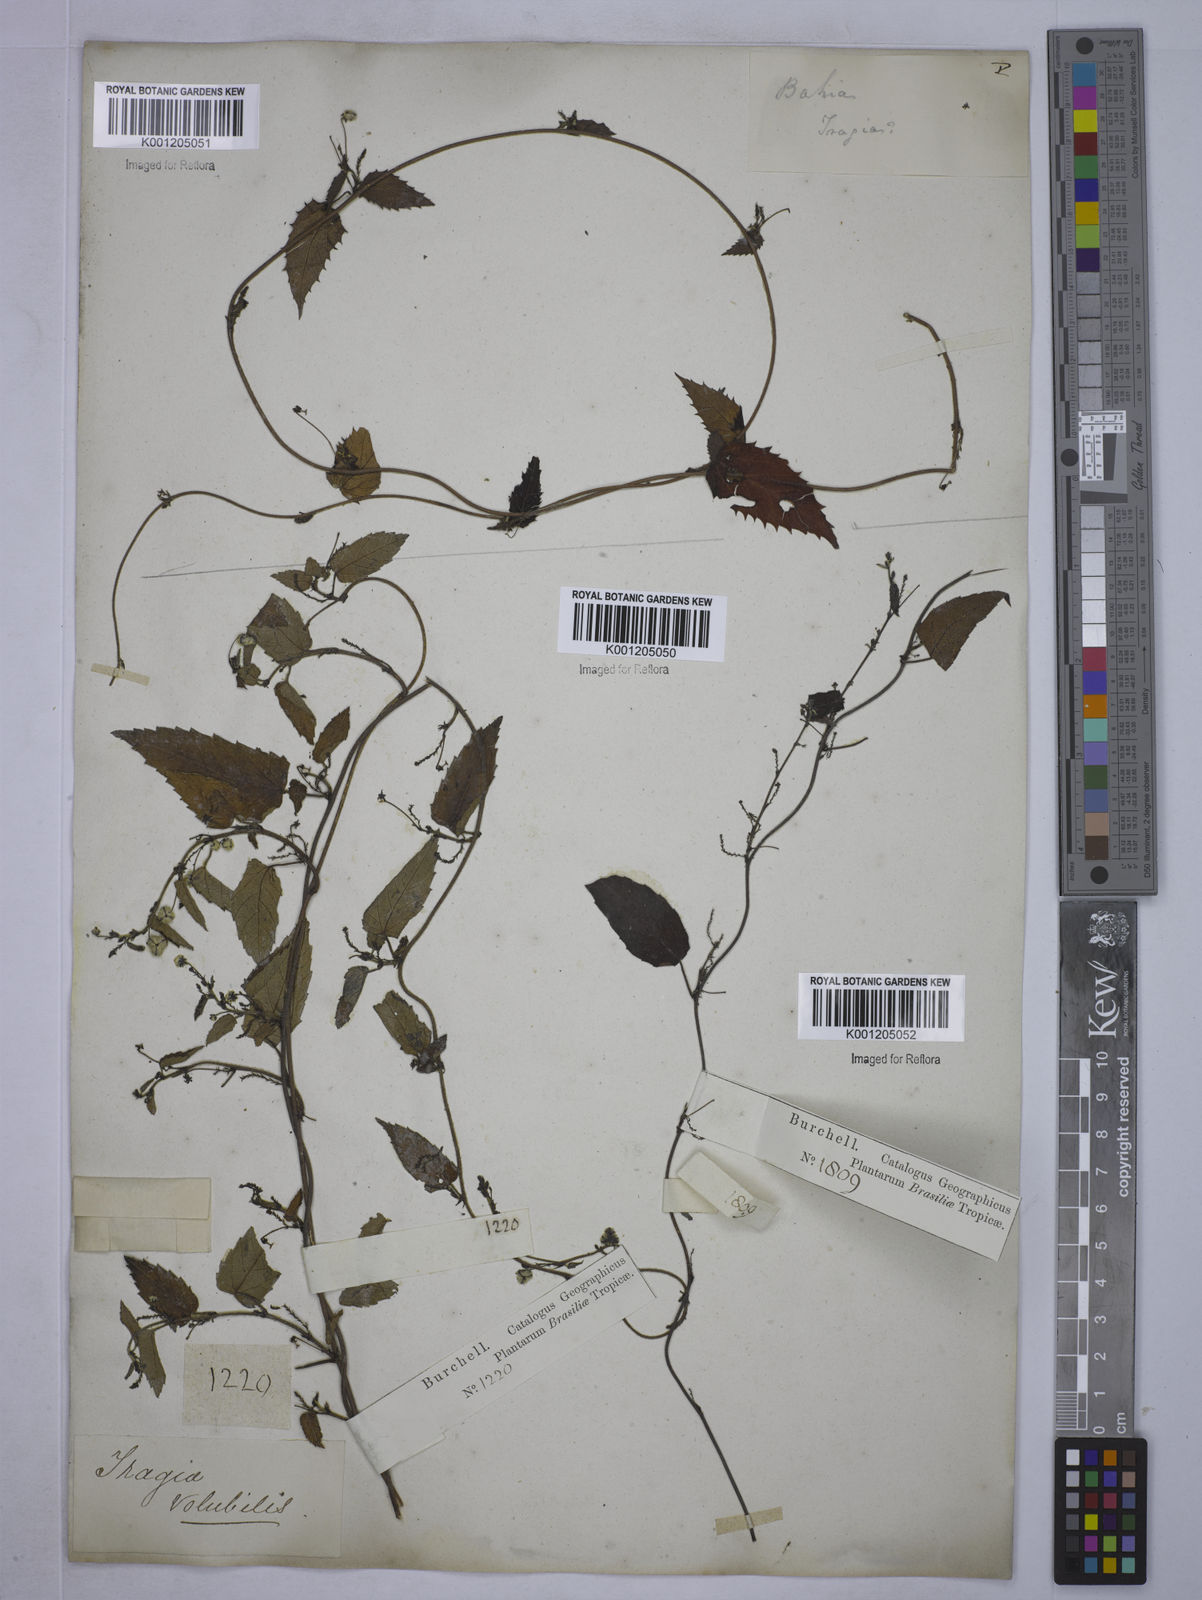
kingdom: Plantae
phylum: Tracheophyta
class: Magnoliopsida
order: Malpighiales
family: Euphorbiaceae
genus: Tragia
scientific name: Tragia volubilis
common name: Twining cow-itch
